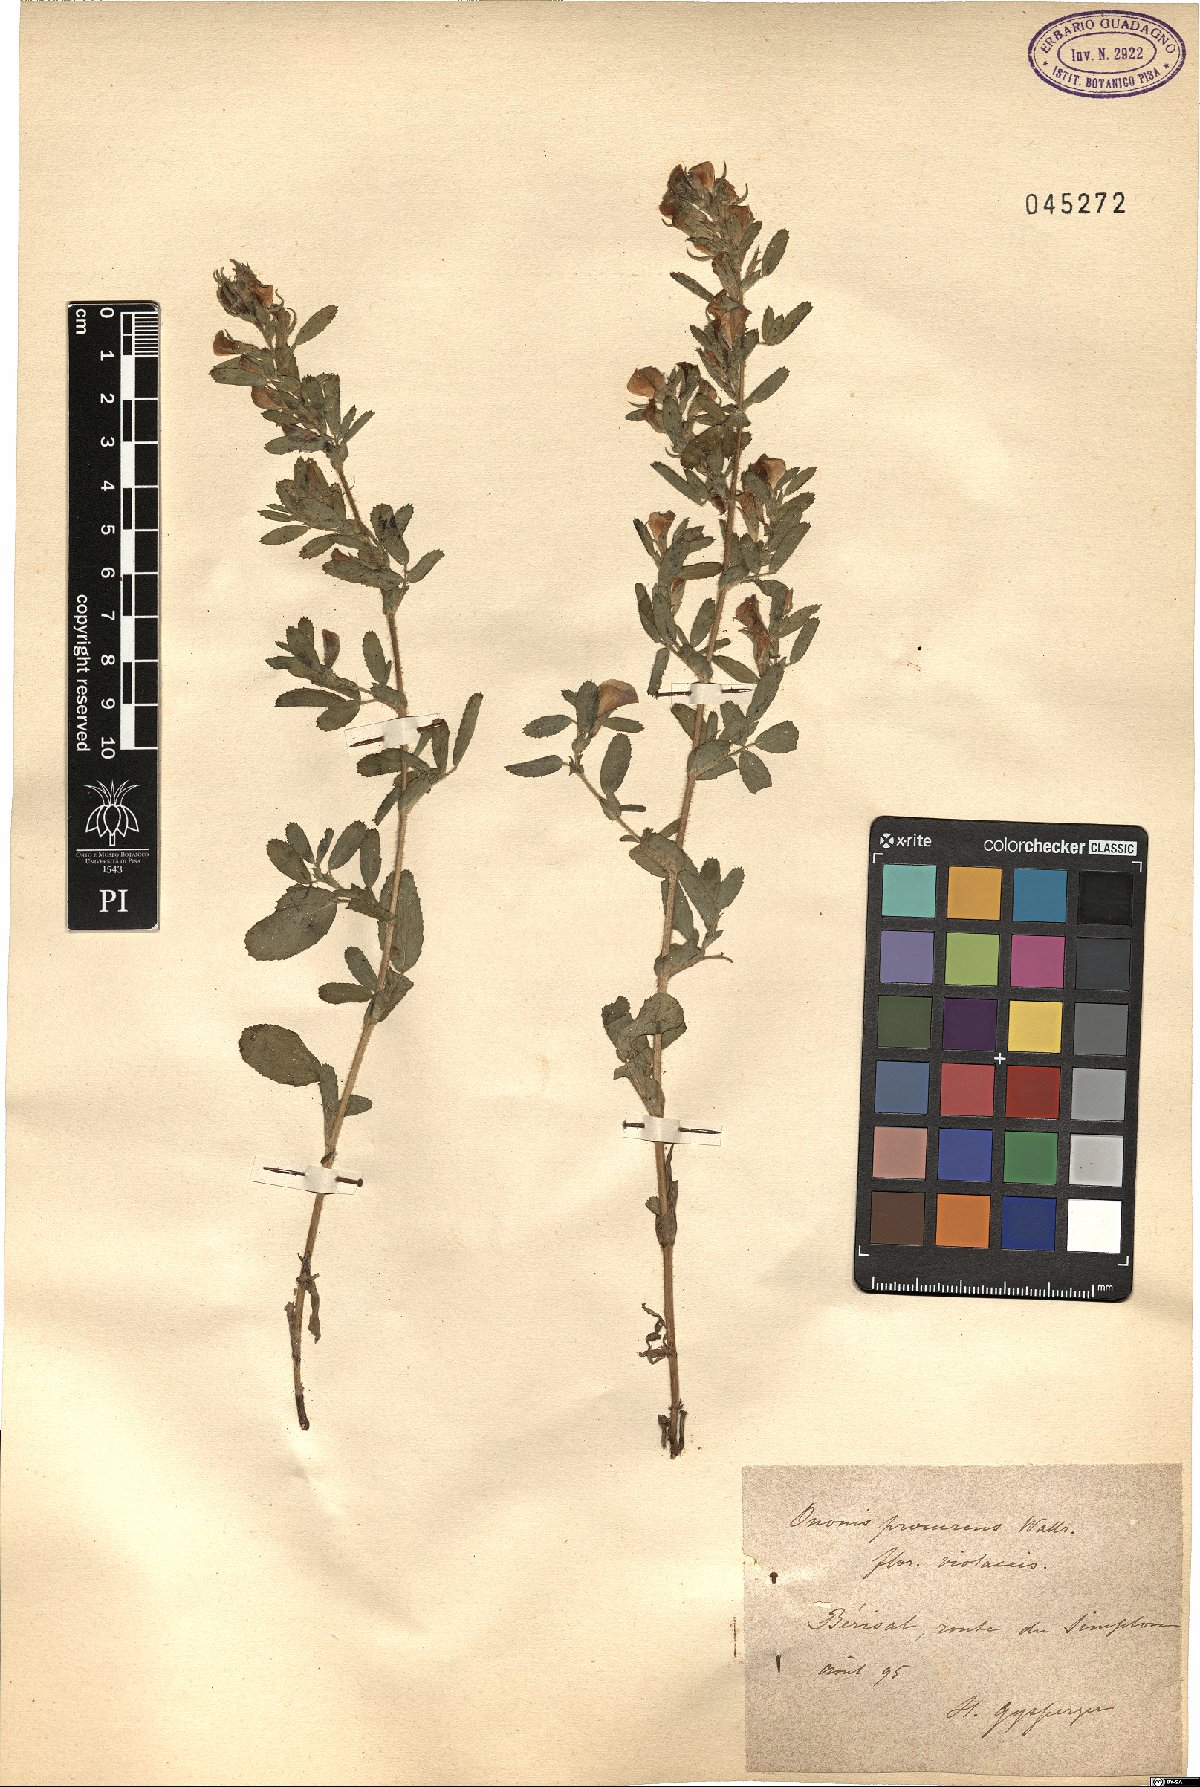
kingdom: Plantae
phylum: Tracheophyta
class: Magnoliopsida
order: Fabales
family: Fabaceae
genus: Ononis
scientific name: Ononis spinosa
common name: Spiny restharrow
